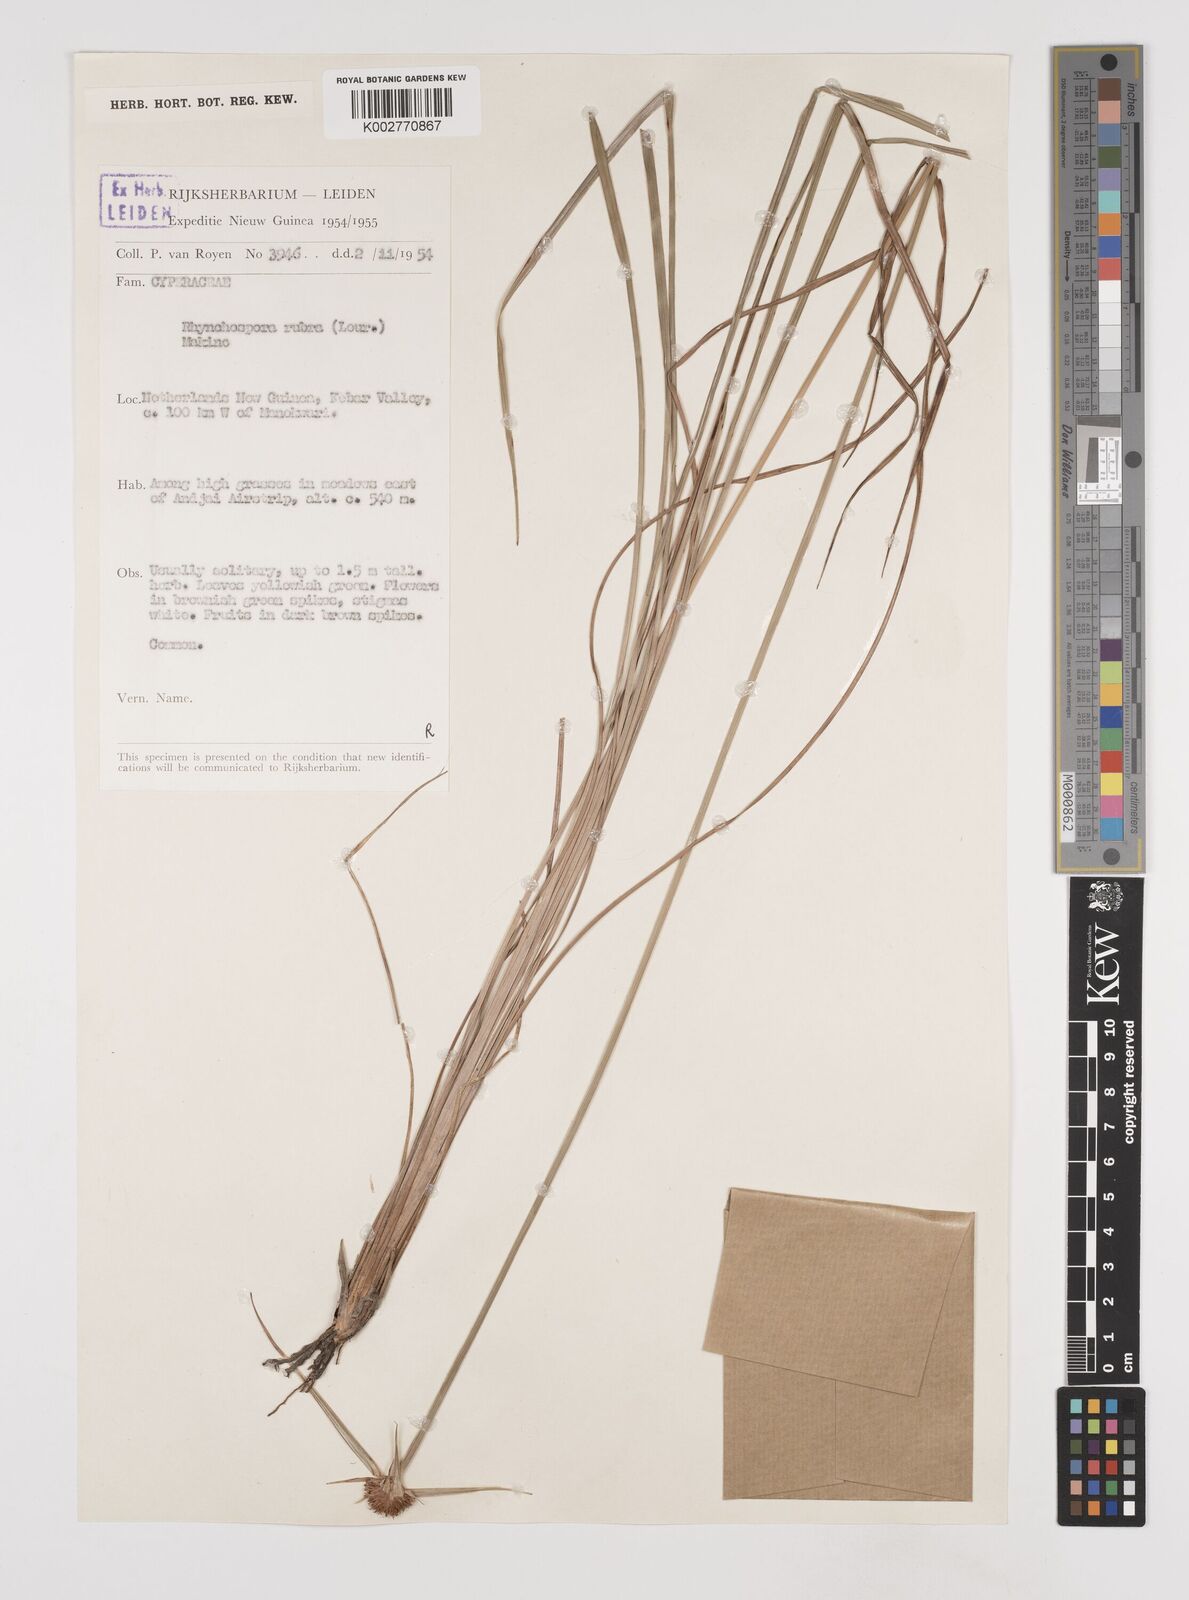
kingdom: Plantae
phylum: Tracheophyta
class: Liliopsida
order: Poales
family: Cyperaceae
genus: Rhynchospora
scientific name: Rhynchospora rubra
